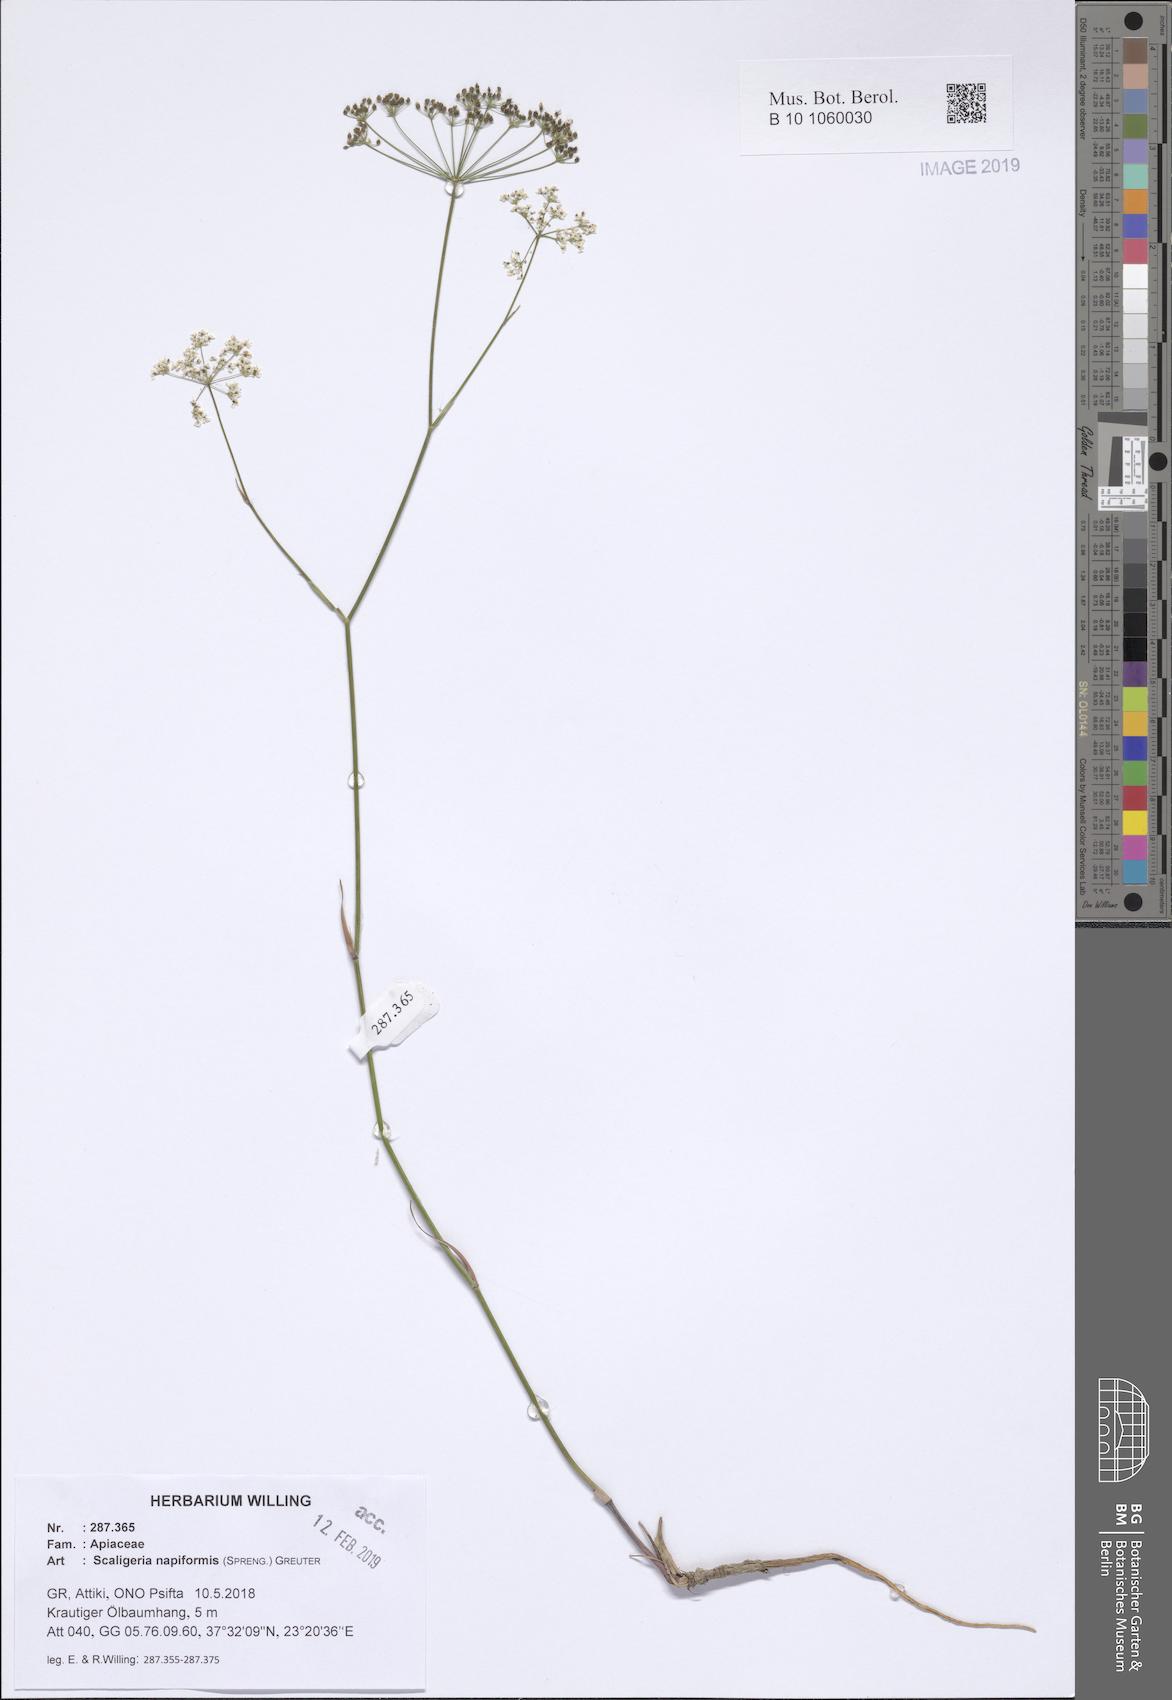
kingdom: Plantae
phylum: Tracheophyta
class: Magnoliopsida
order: Apiales
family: Apiaceae
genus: Scaligeria
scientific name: Scaligeria napiformis
